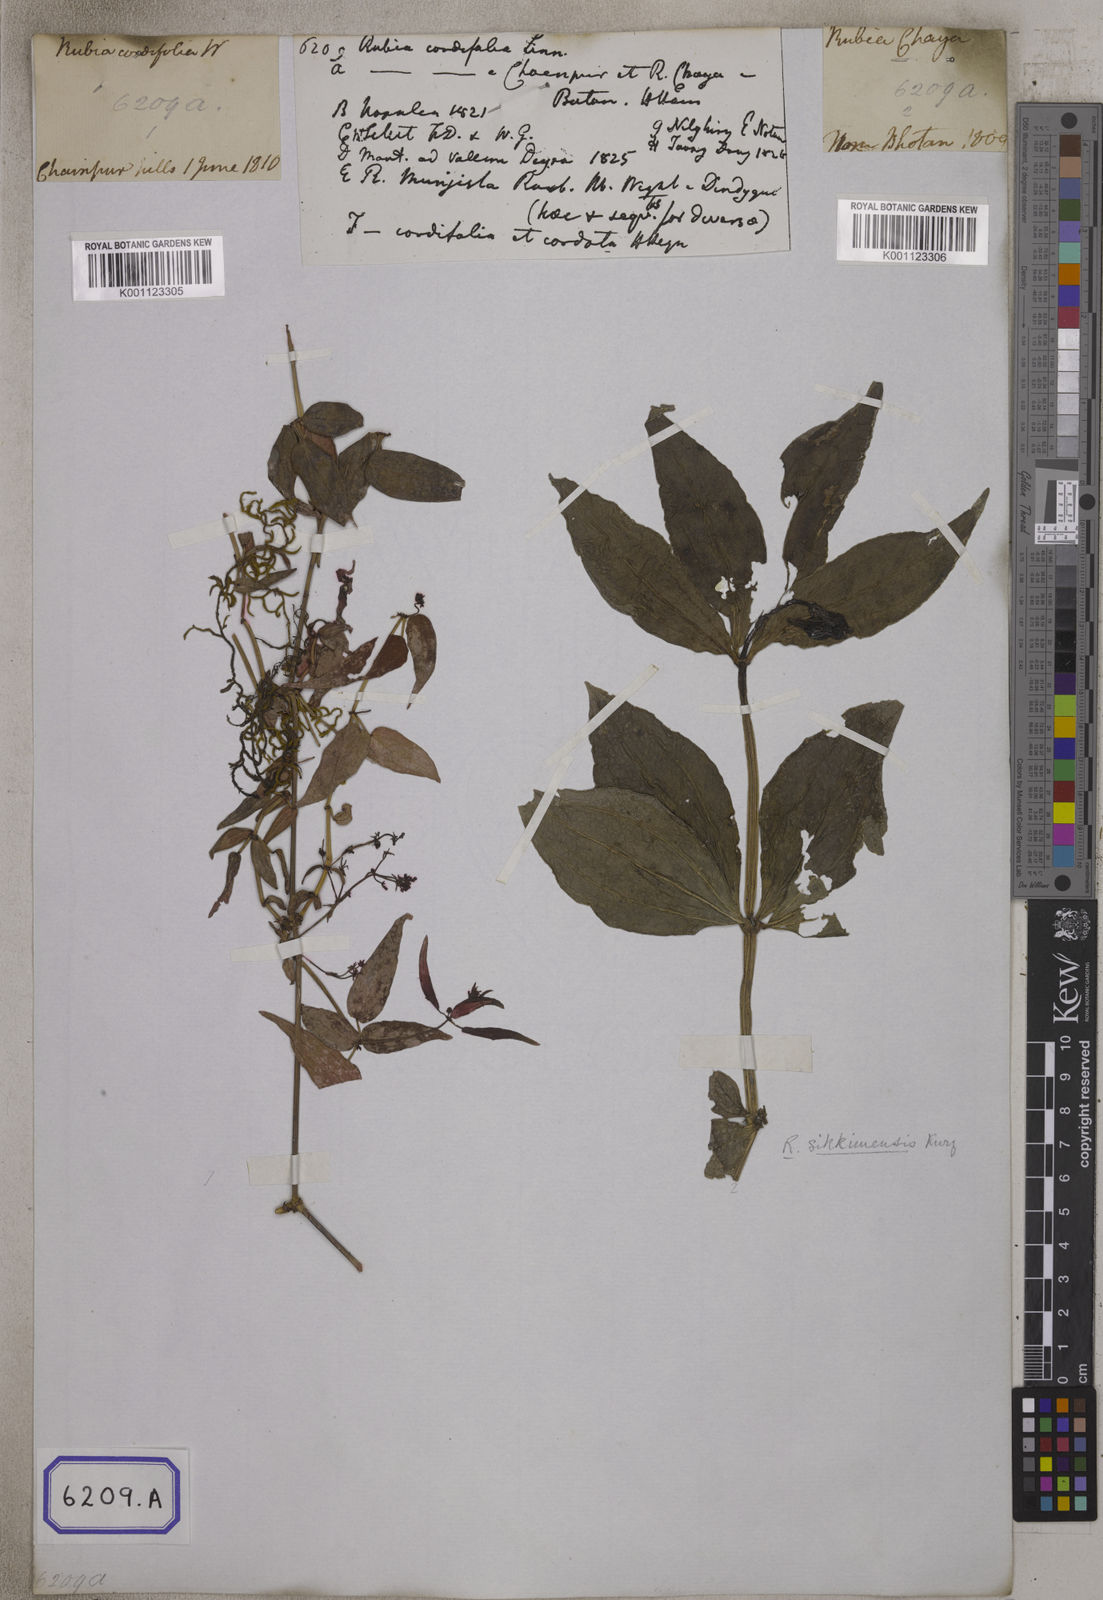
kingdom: Plantae
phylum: Tracheophyta
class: Magnoliopsida
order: Gentianales
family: Rubiaceae
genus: Rubia
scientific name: Rubia cordifolia
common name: Indian madder
